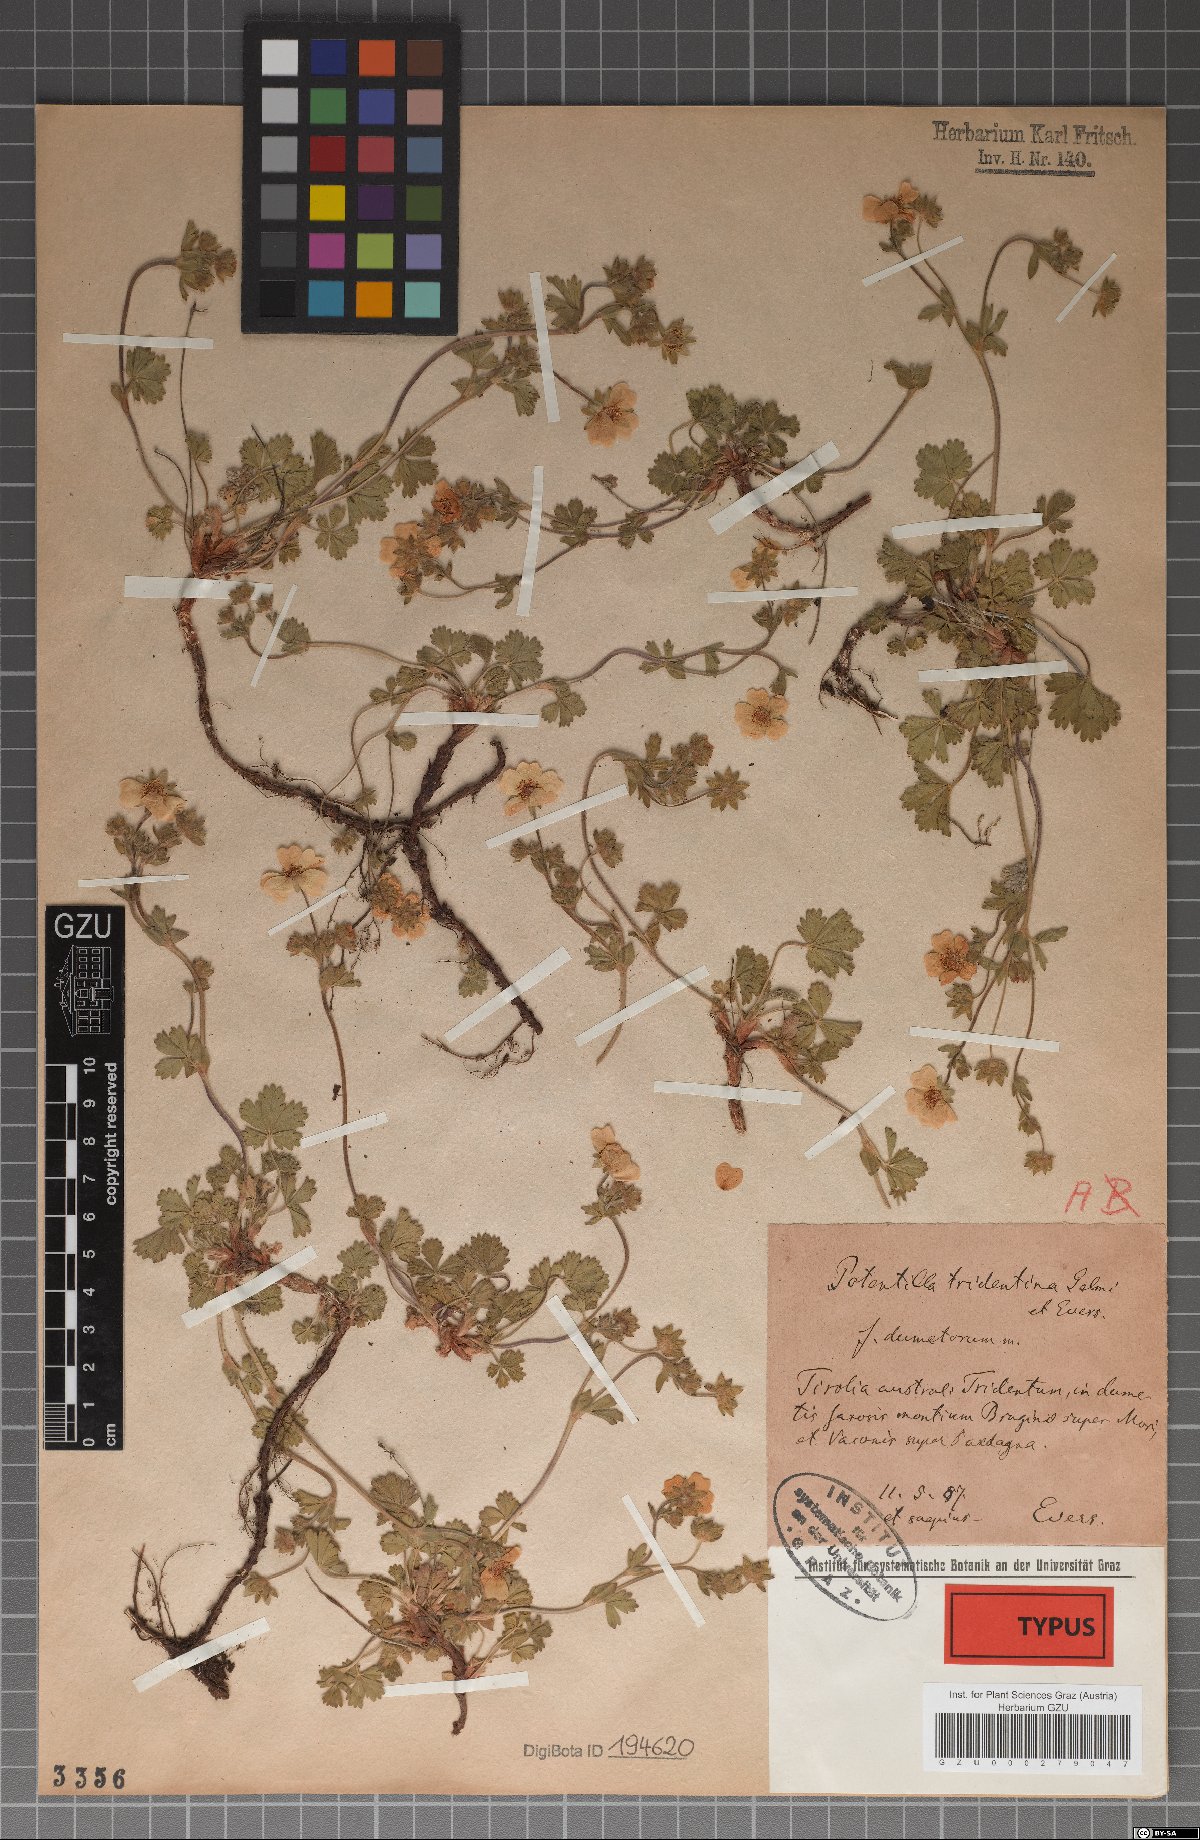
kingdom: Plantae
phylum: Tracheophyta
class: Magnoliopsida
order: Rosales
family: Rosaceae
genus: Potentilla
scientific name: Potentilla crantzii
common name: Alpine cinquefoil
